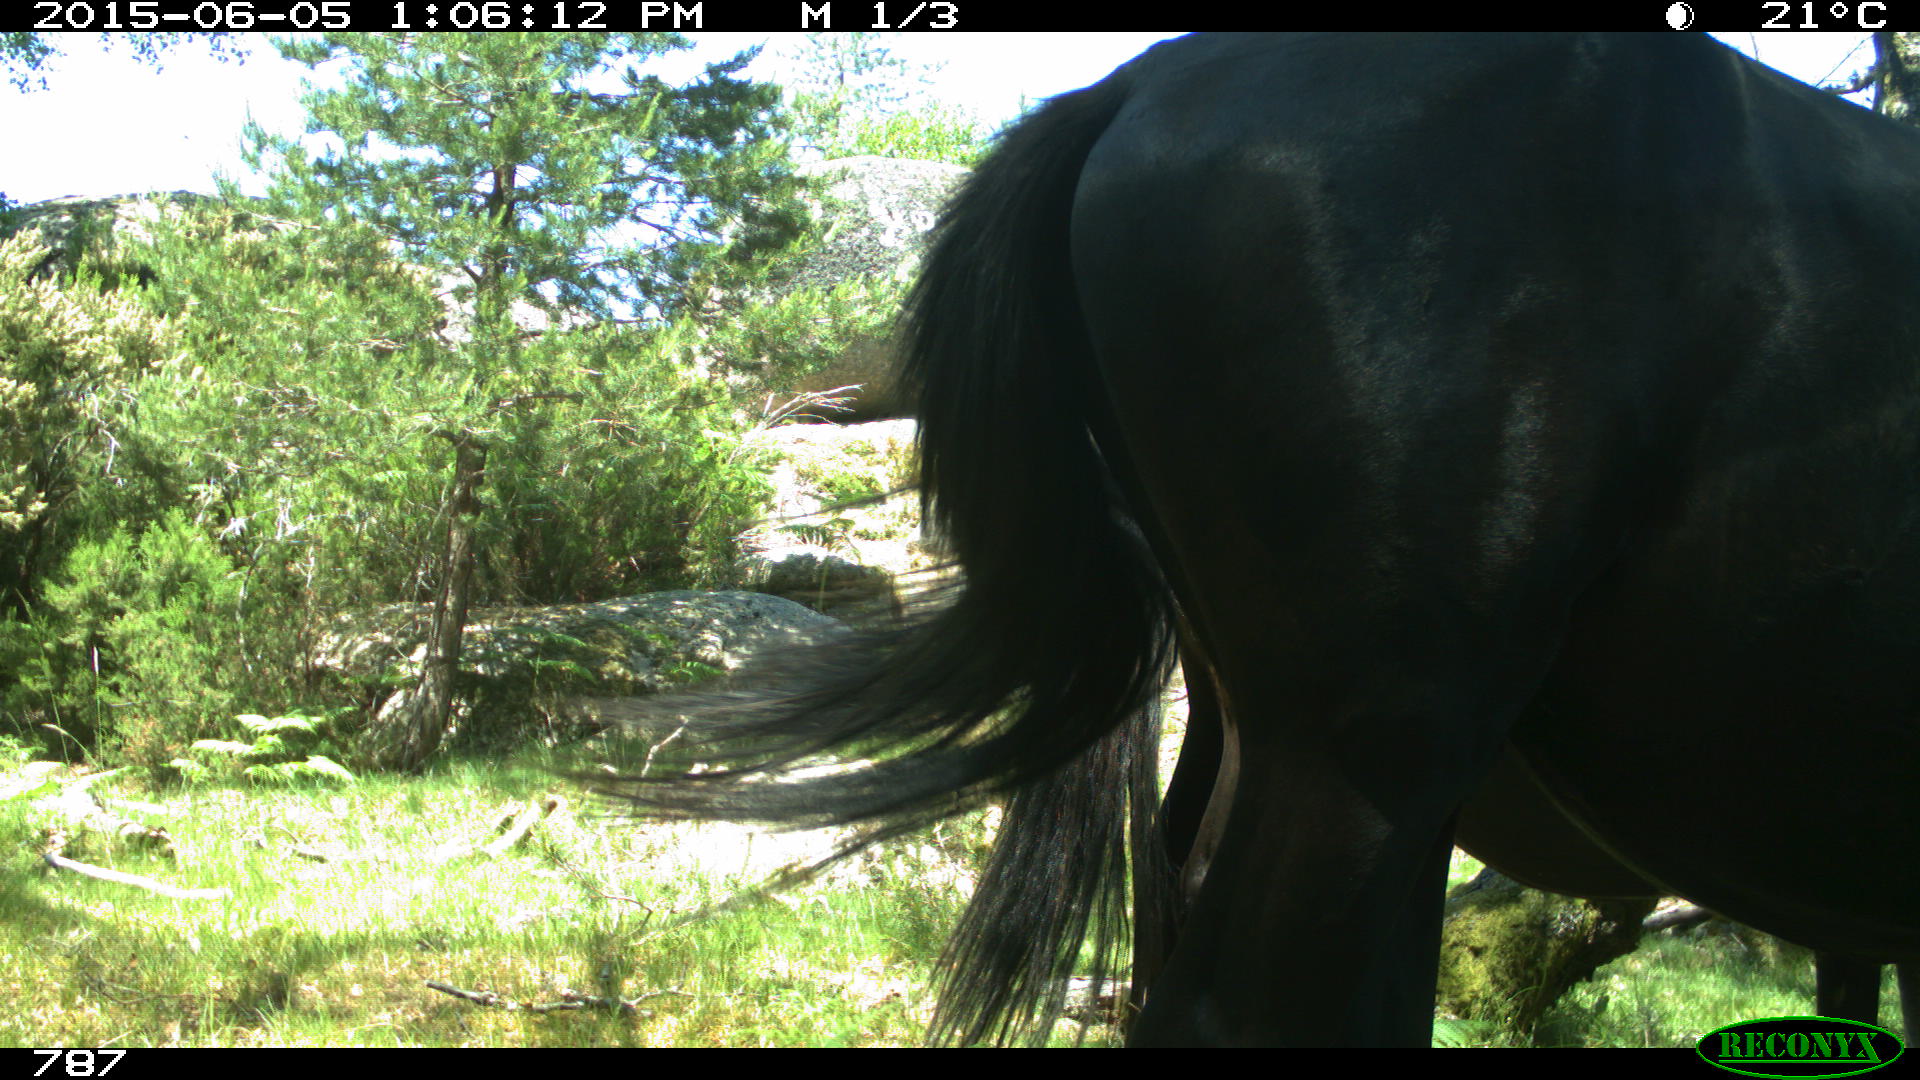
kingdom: Animalia
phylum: Chordata
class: Mammalia
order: Perissodactyla
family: Equidae
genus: Equus
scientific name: Equus caballus
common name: Horse
